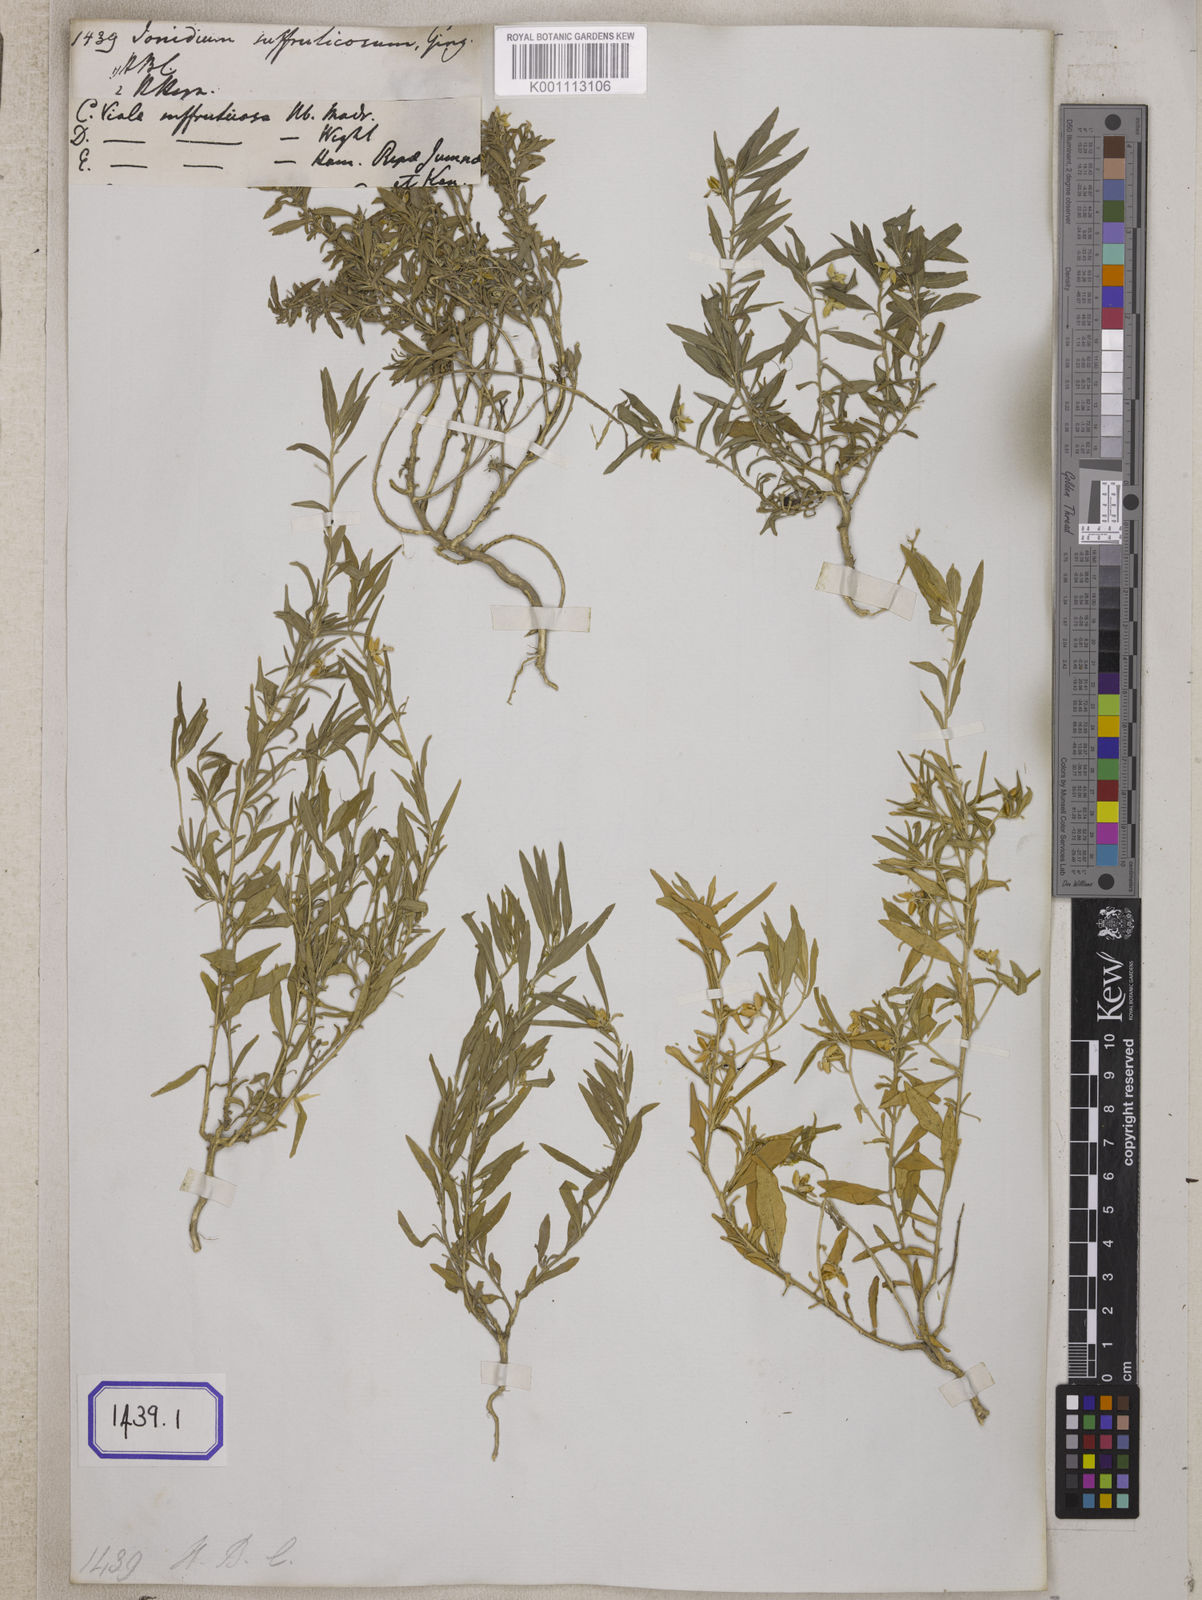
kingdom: Plantae
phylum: Tracheophyta
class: Magnoliopsida
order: Malpighiales
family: Violaceae
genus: Pigea
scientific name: Pigea enneasperma
